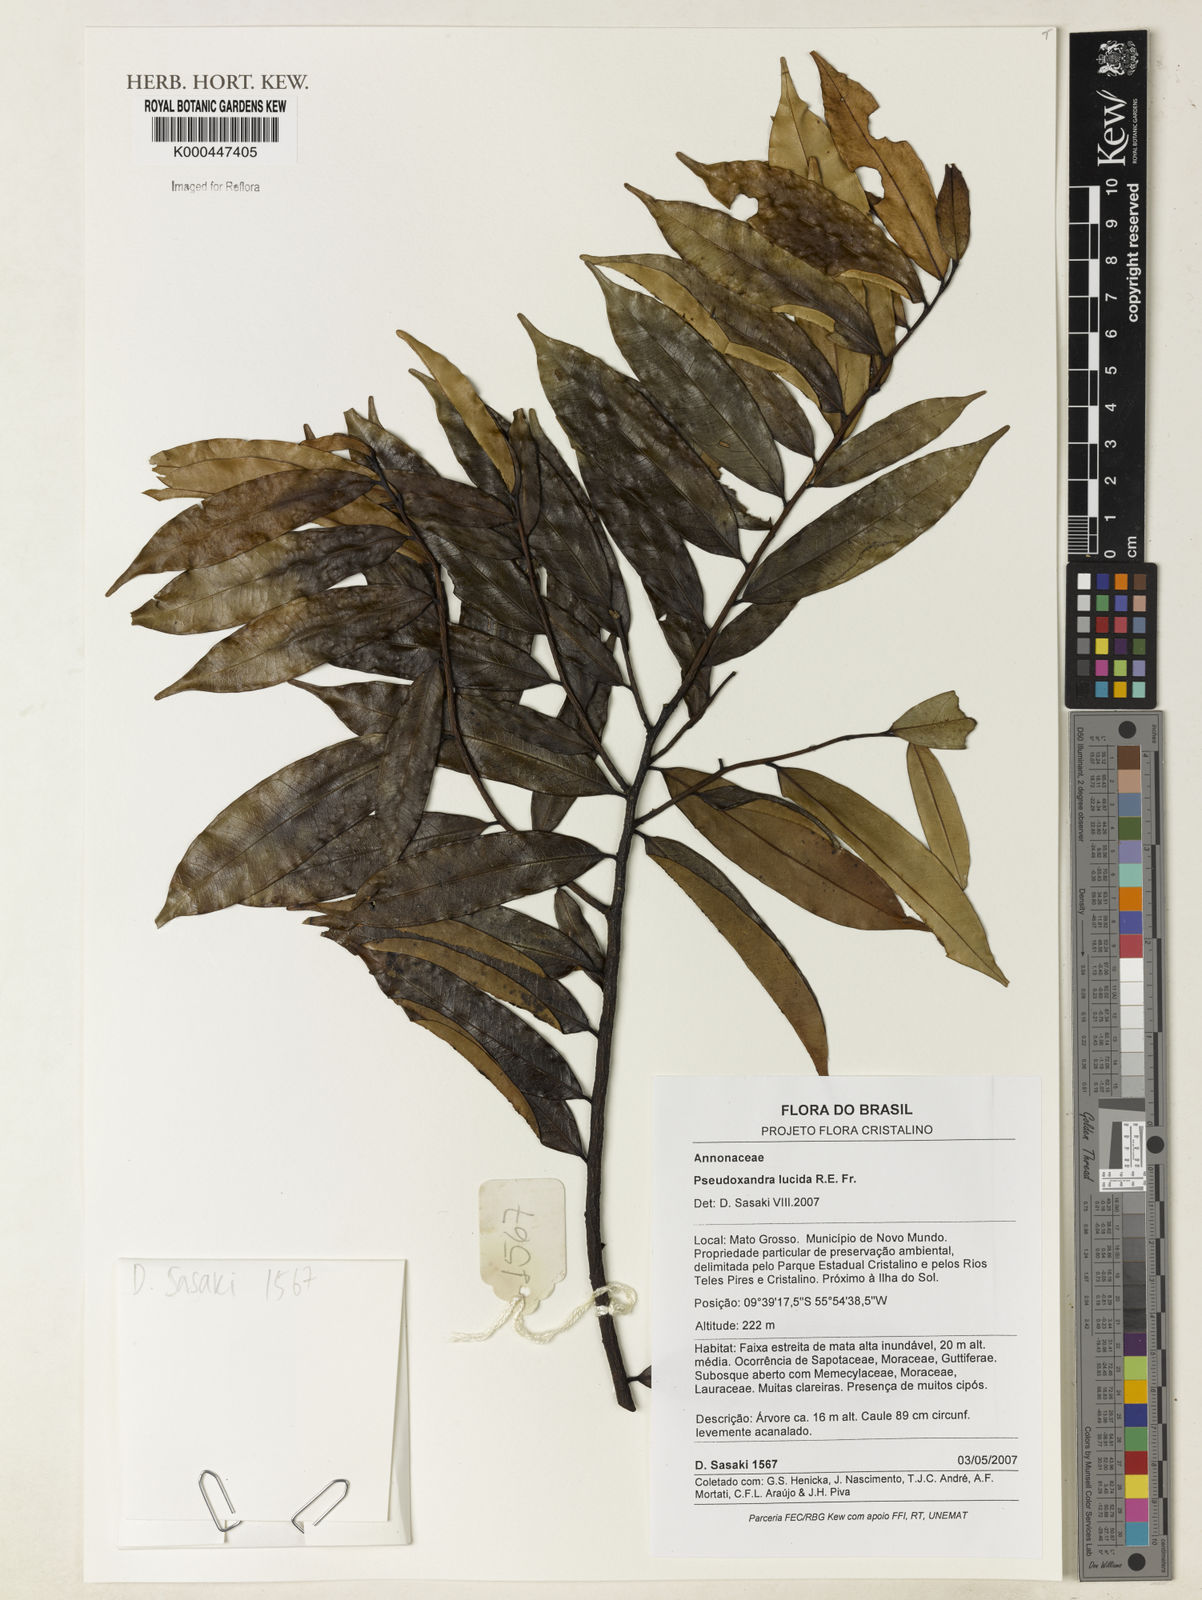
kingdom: Plantae
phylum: Tracheophyta
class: Magnoliopsida
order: Magnoliales
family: Annonaceae
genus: Pseudoxandra
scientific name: Pseudoxandra lucida
